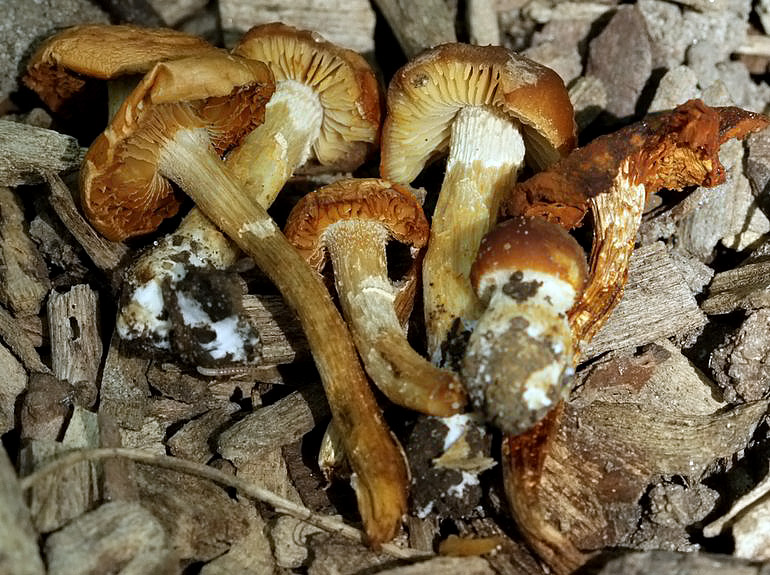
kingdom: Fungi
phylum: Basidiomycota
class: Agaricomycetes
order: Agaricales
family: Bolbitiaceae
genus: Conocybe
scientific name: Conocybe aporos
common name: tidlig dansehat
